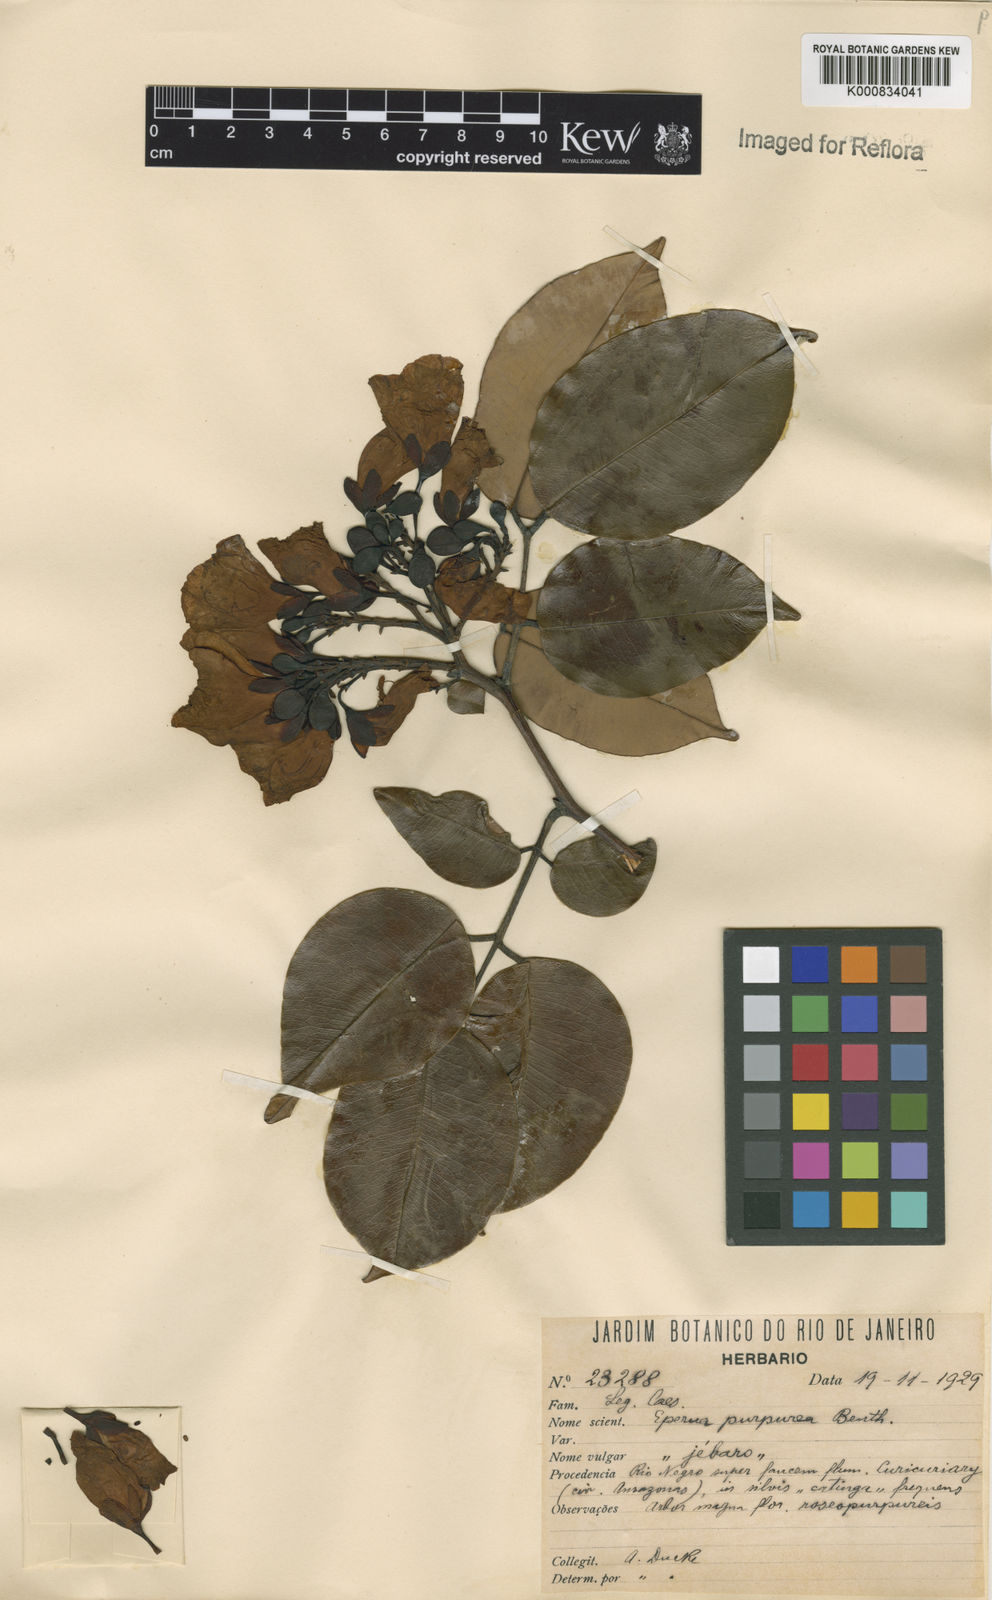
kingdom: Plantae
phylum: Tracheophyta
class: Magnoliopsida
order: Fabales
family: Fabaceae
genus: Eperua
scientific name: Eperua purpurea
